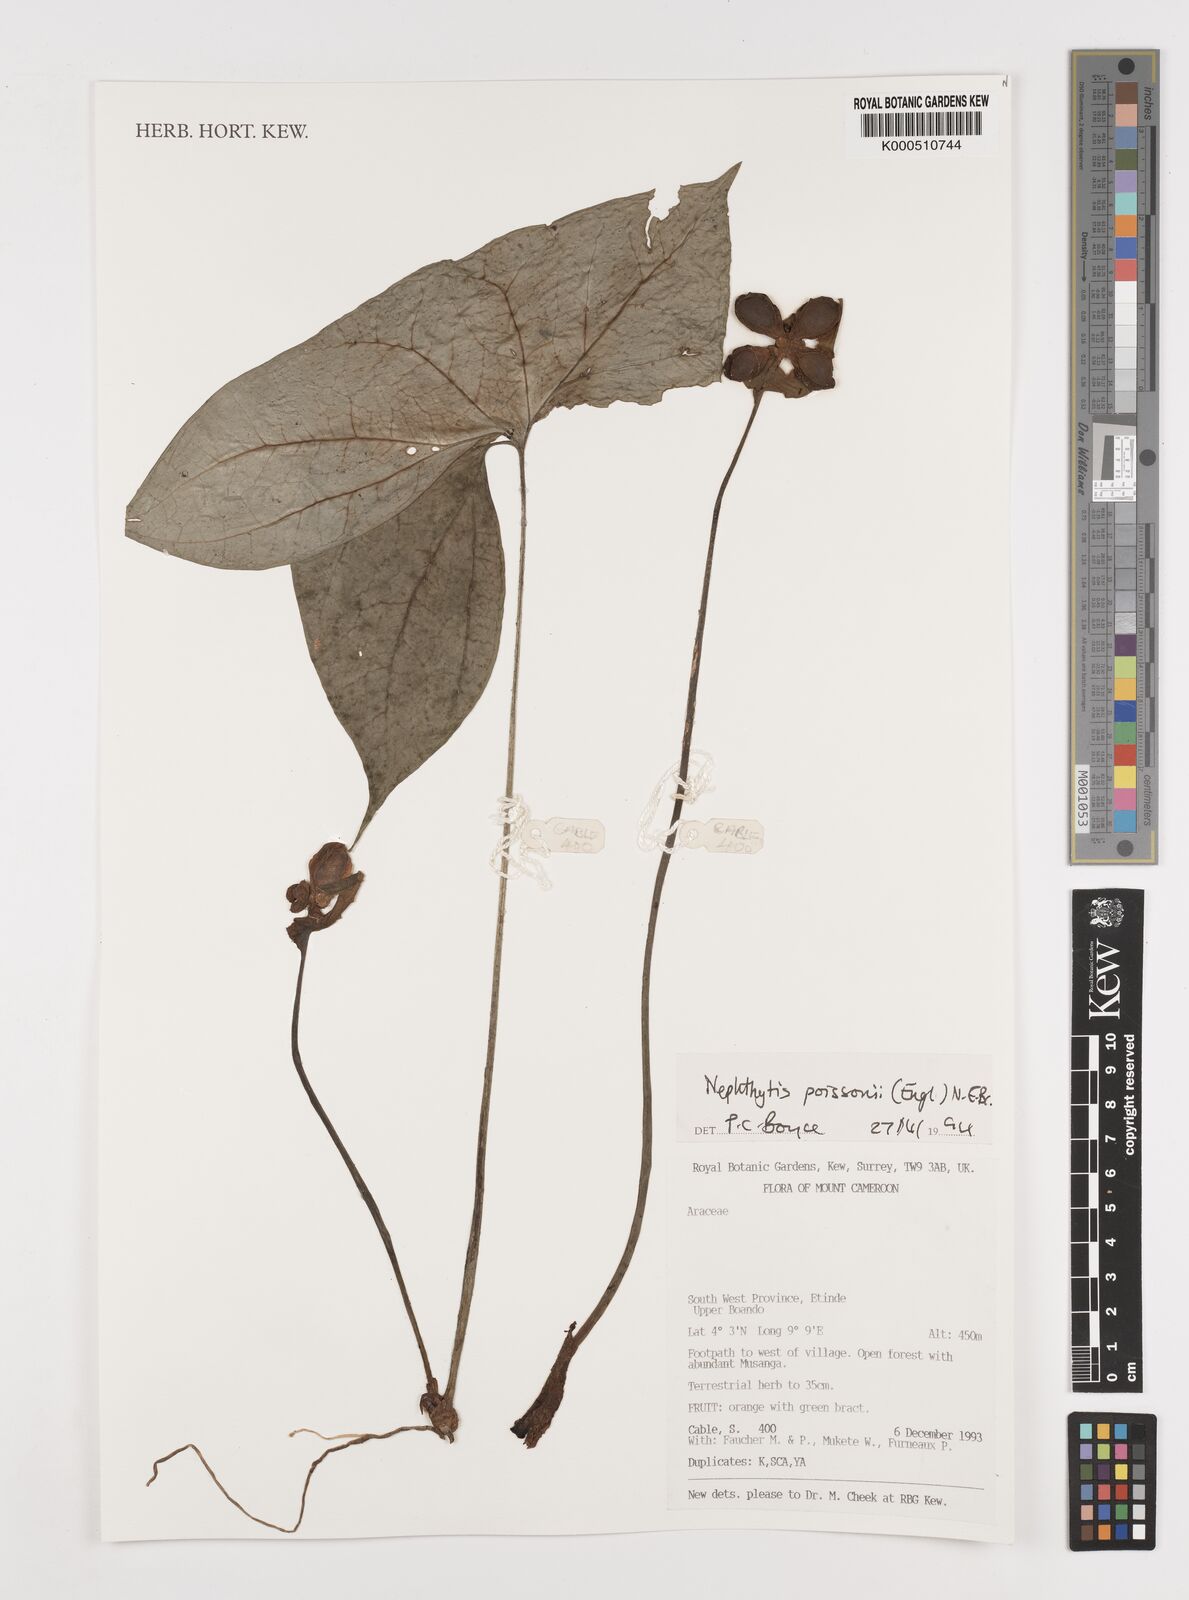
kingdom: Plantae
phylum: Tracheophyta
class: Liliopsida
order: Alismatales
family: Araceae
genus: Nephthytis
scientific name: Nephthytis poissonii
